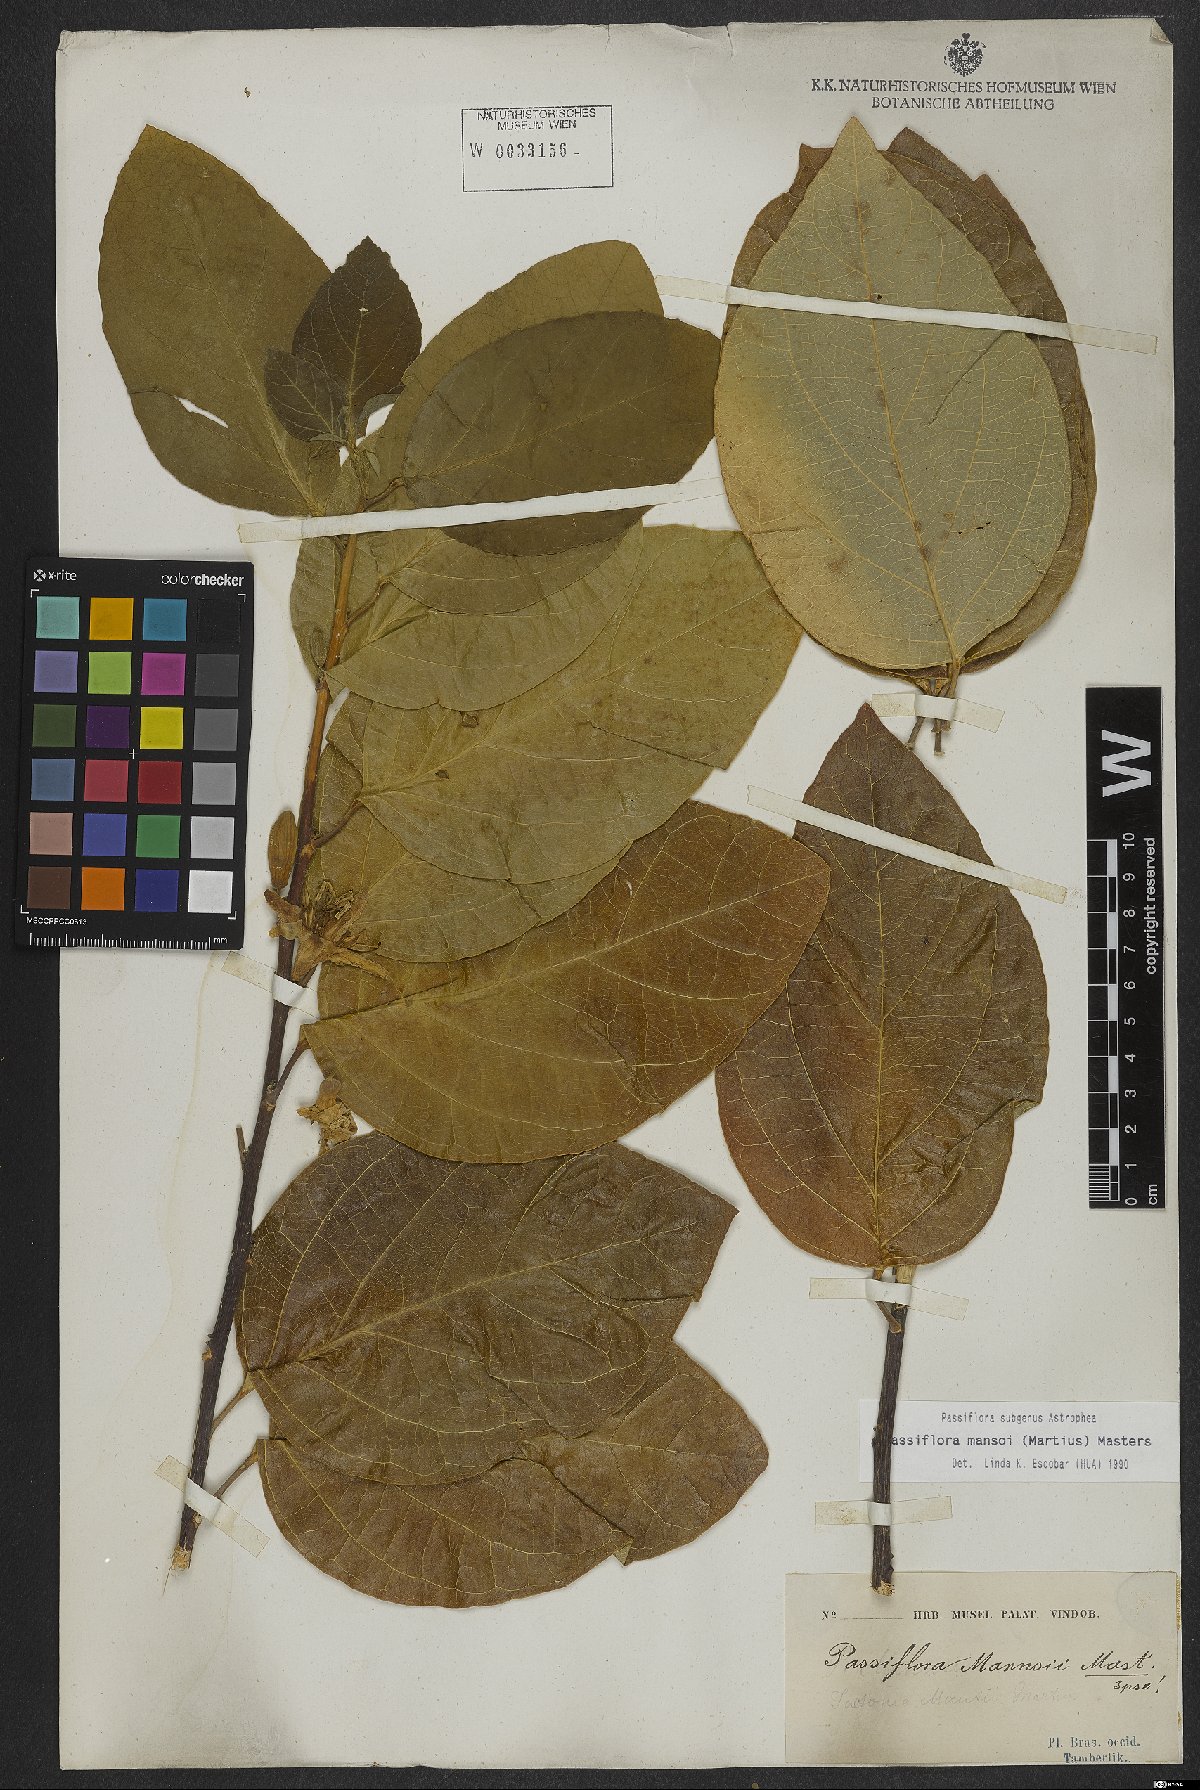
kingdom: Plantae
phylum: Tracheophyta
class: Magnoliopsida
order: Malpighiales
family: Passifloraceae
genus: Passiflora
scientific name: Passiflora mansoi
